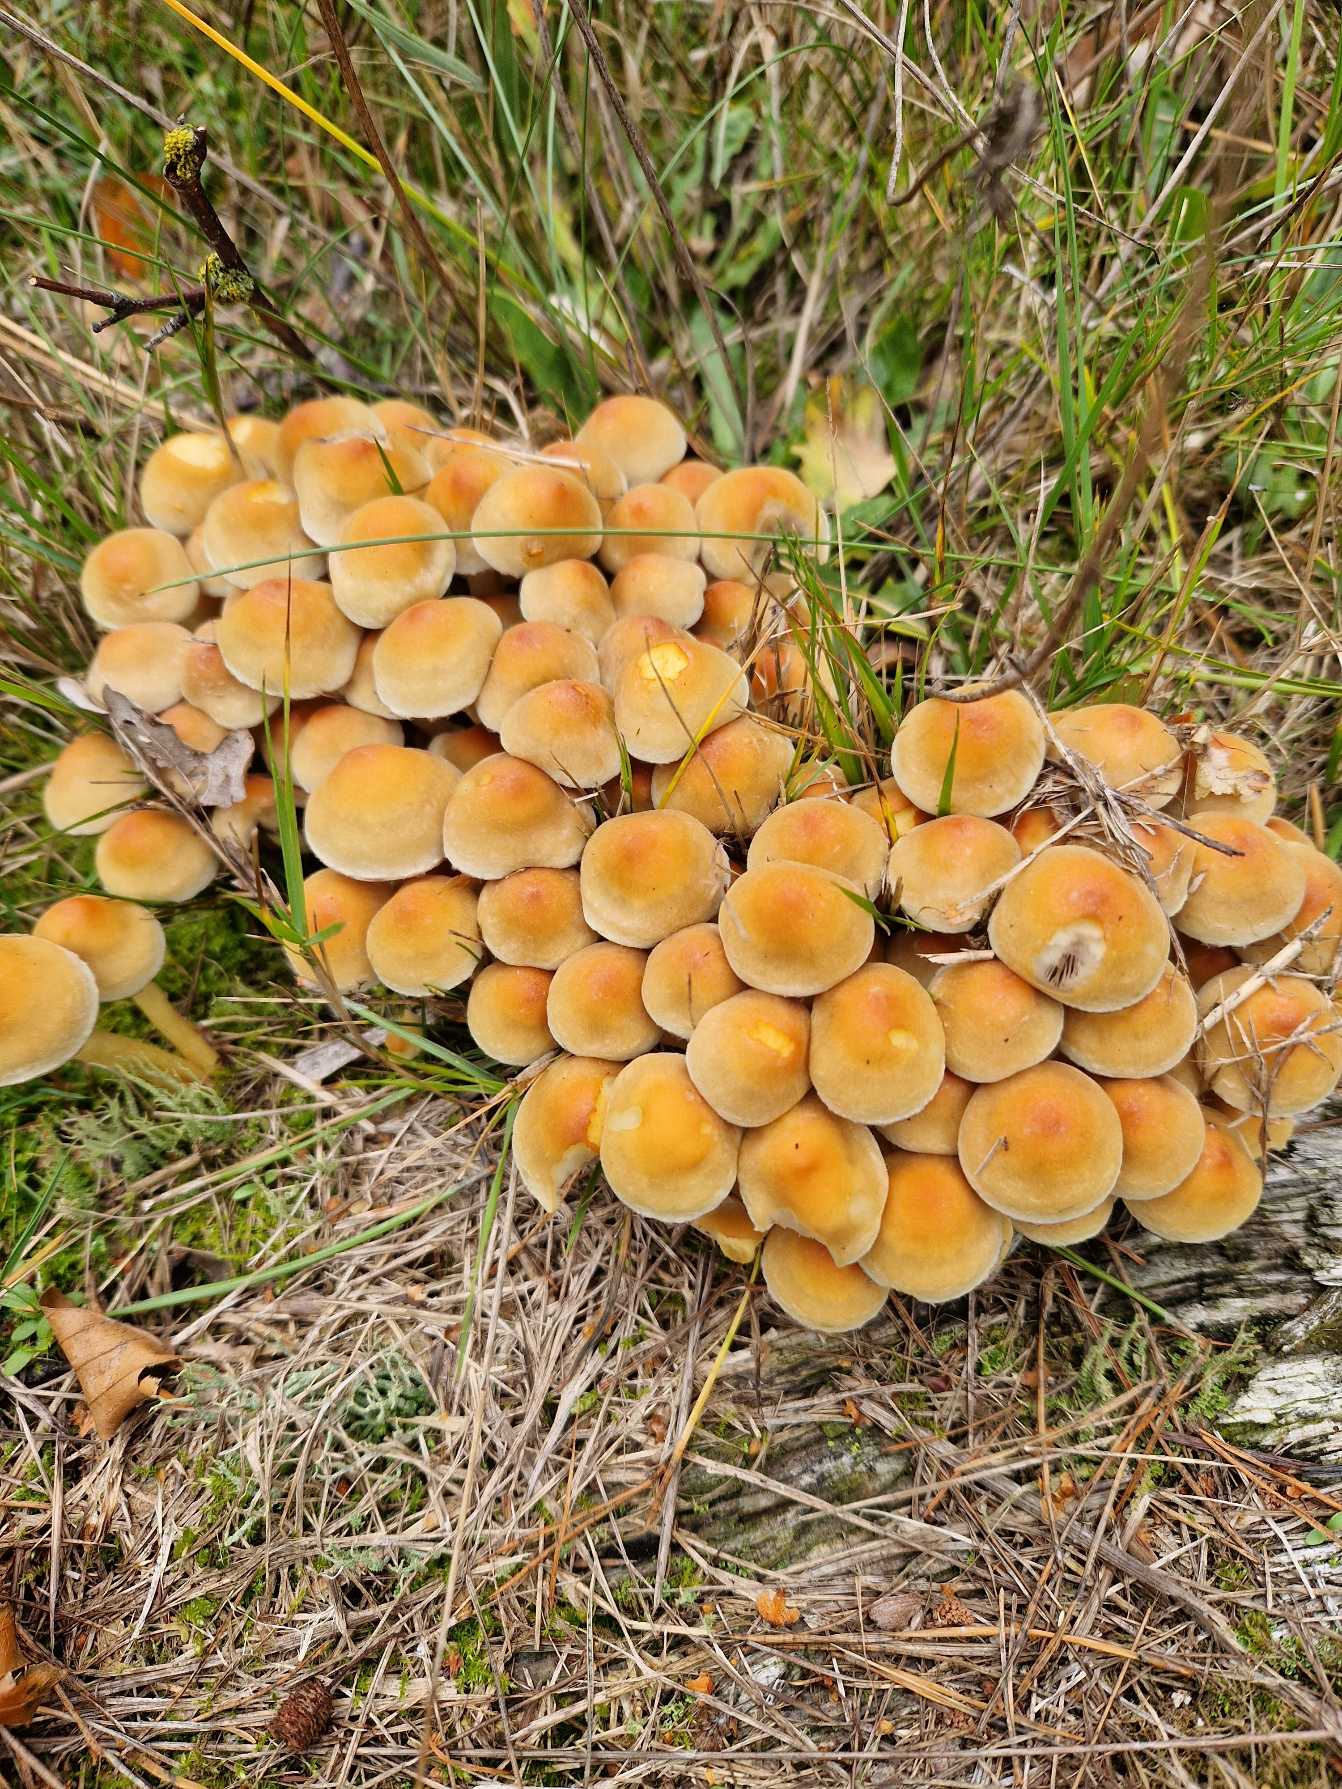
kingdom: Fungi
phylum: Basidiomycota
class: Agaricomycetes
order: Agaricales
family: Strophariaceae
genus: Hypholoma
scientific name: Hypholoma fasciculare
